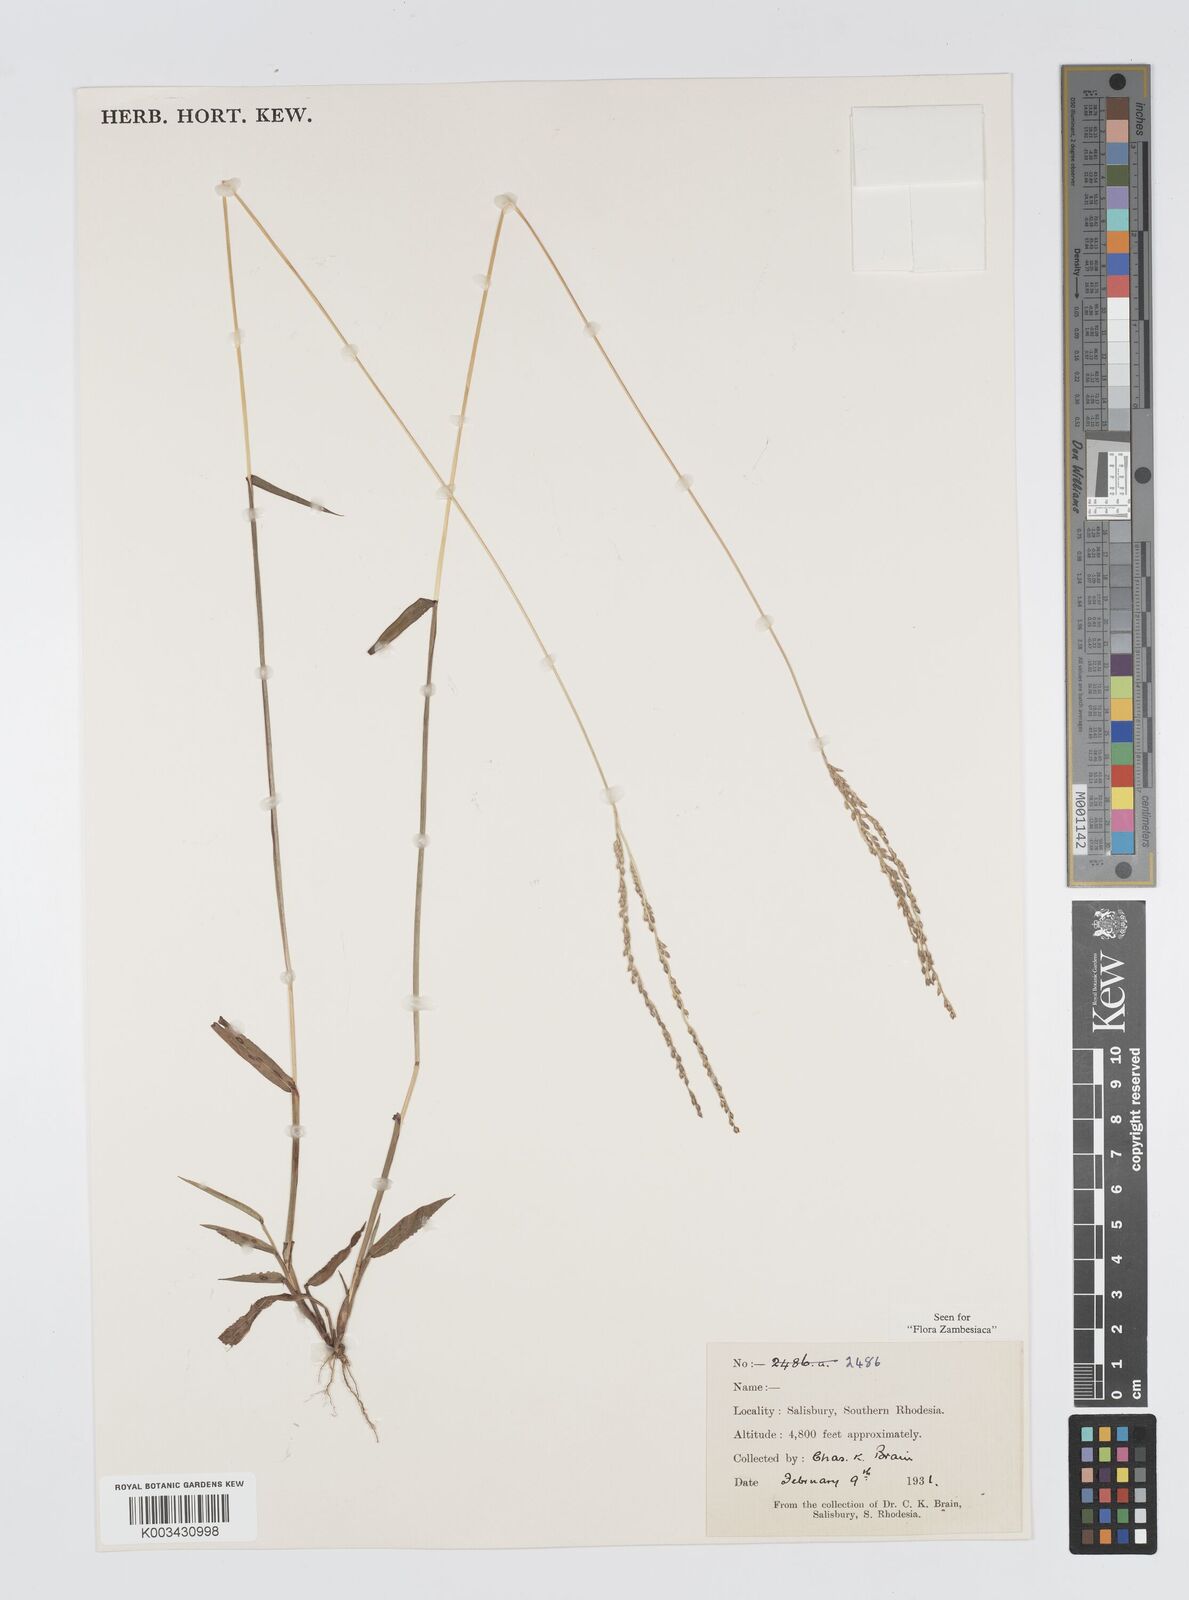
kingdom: Plantae
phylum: Tracheophyta
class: Liliopsida
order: Poales
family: Poaceae
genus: Digitaria
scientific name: Digitaria angolensis
